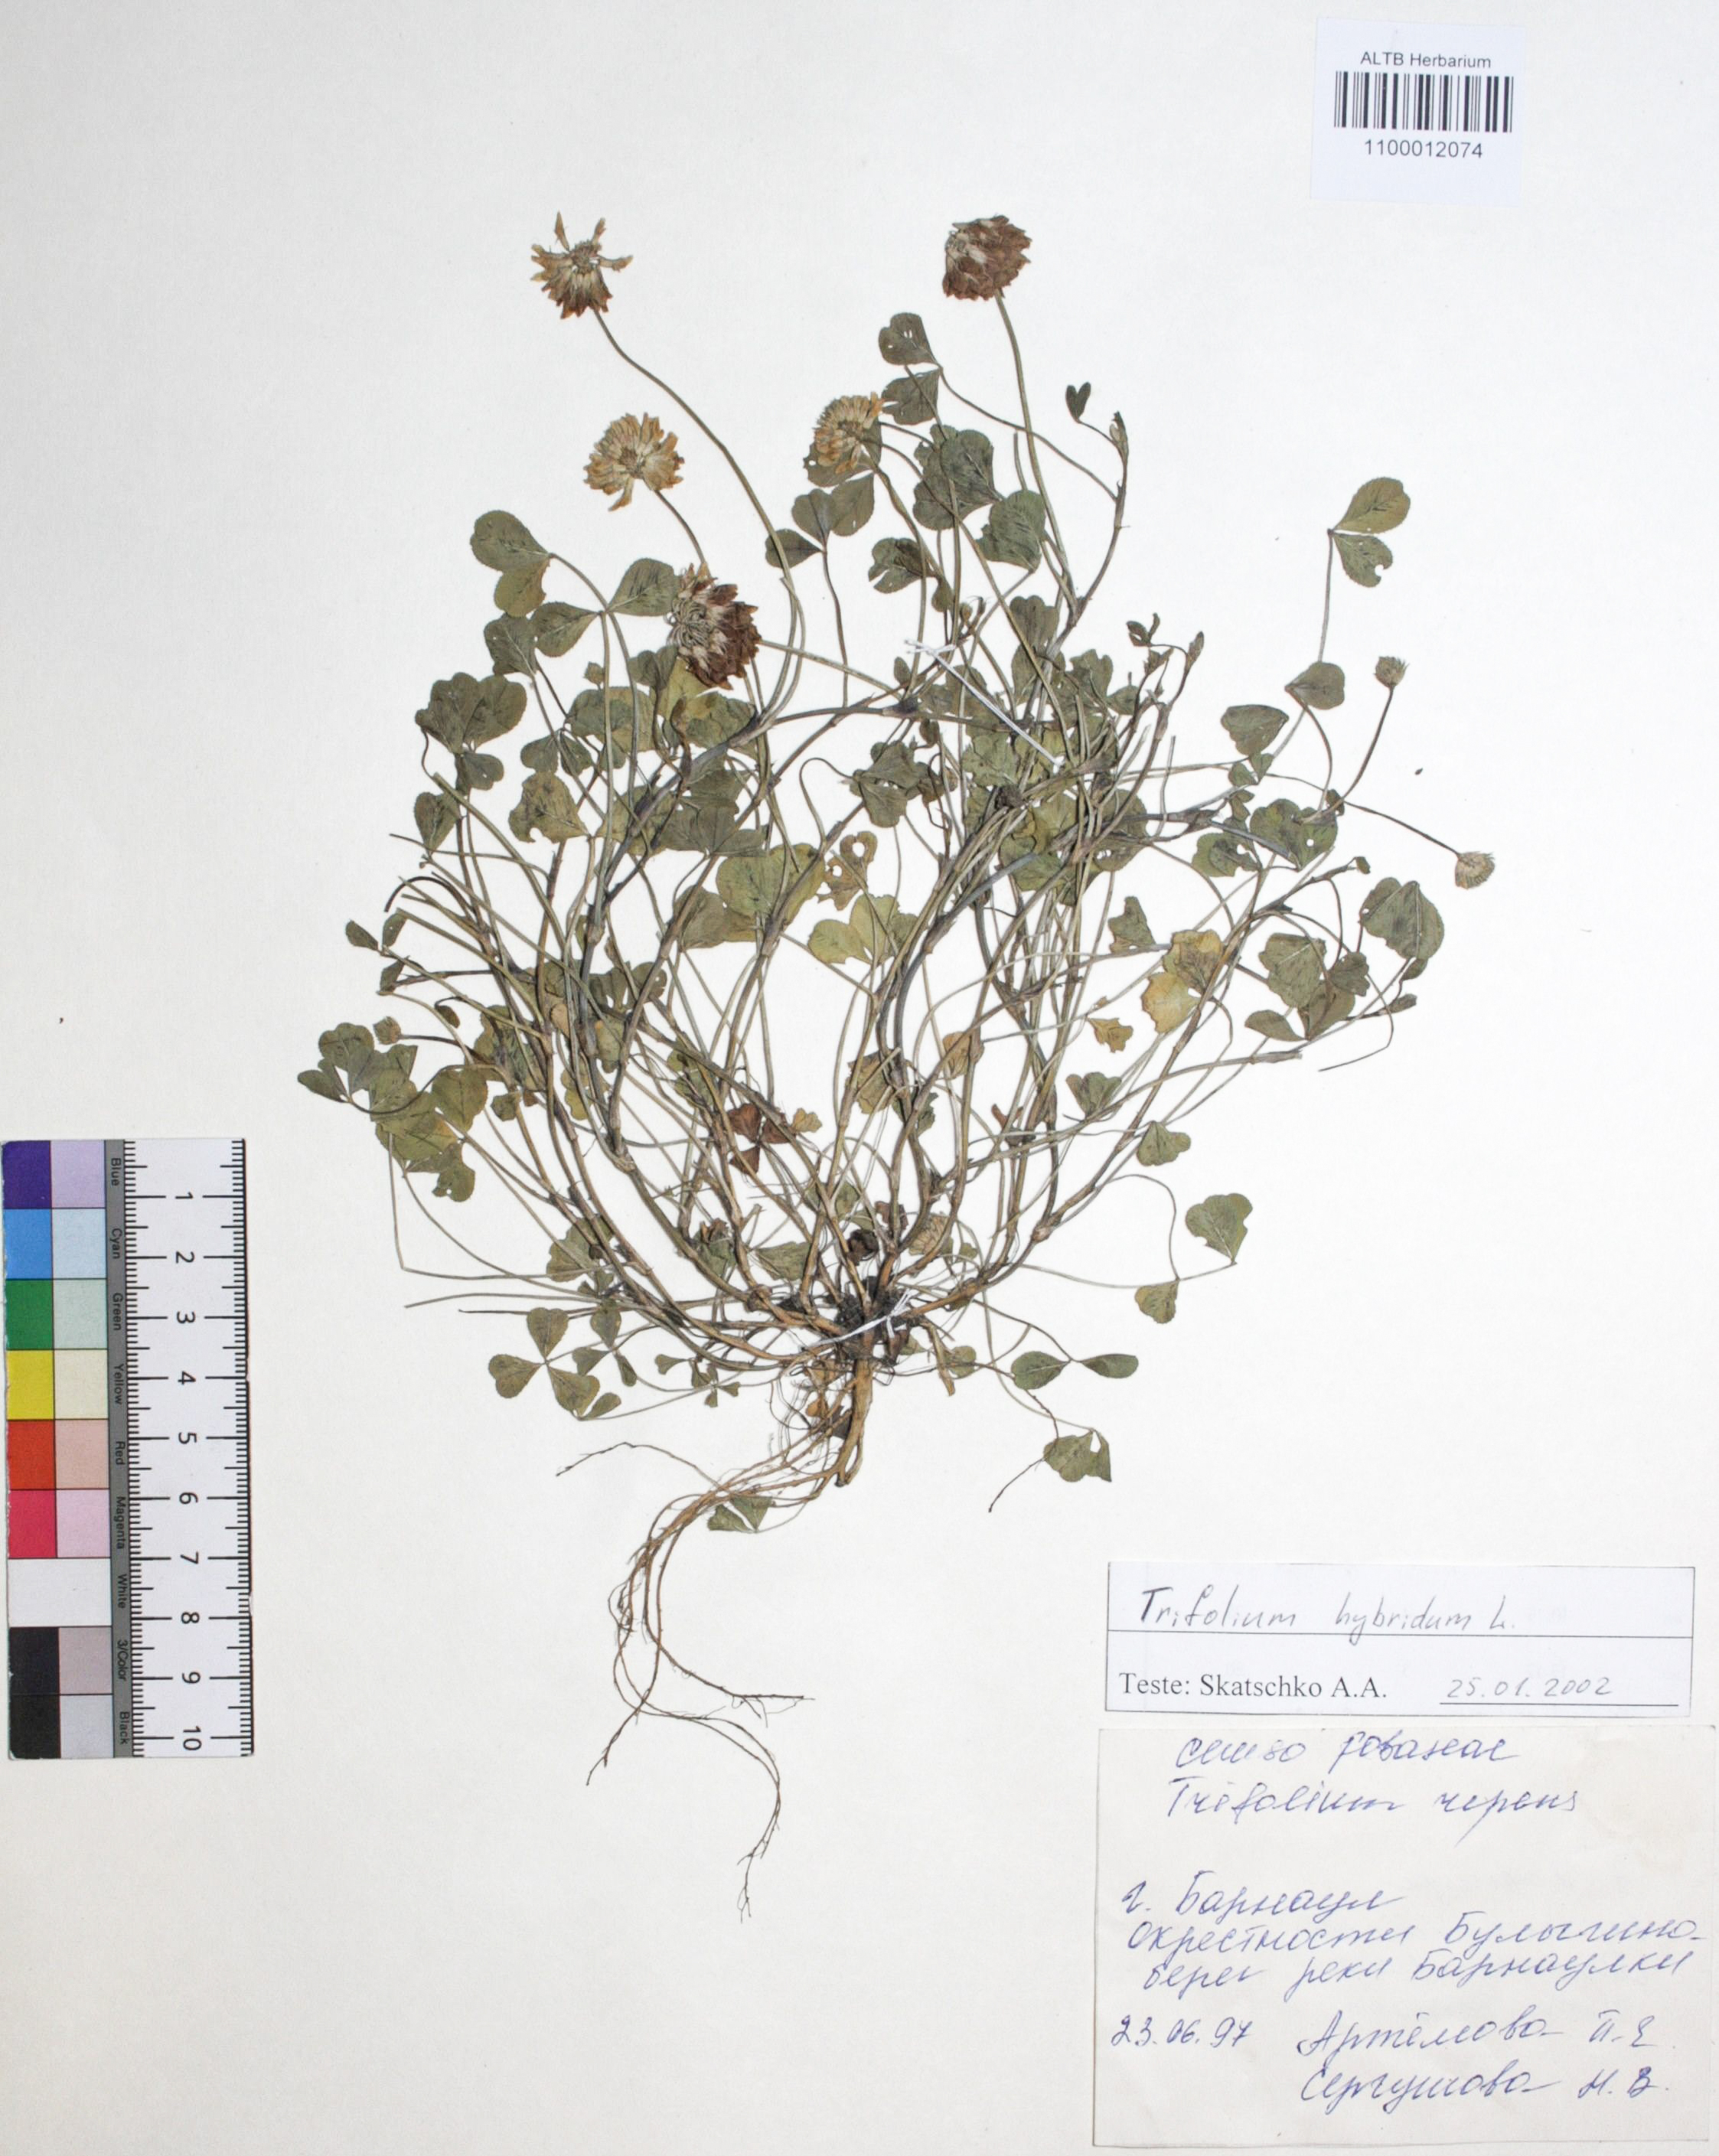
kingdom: Plantae
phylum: Tracheophyta
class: Magnoliopsida
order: Fabales
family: Fabaceae
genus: Trifolium
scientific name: Trifolium hybridum
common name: Alsike clover
